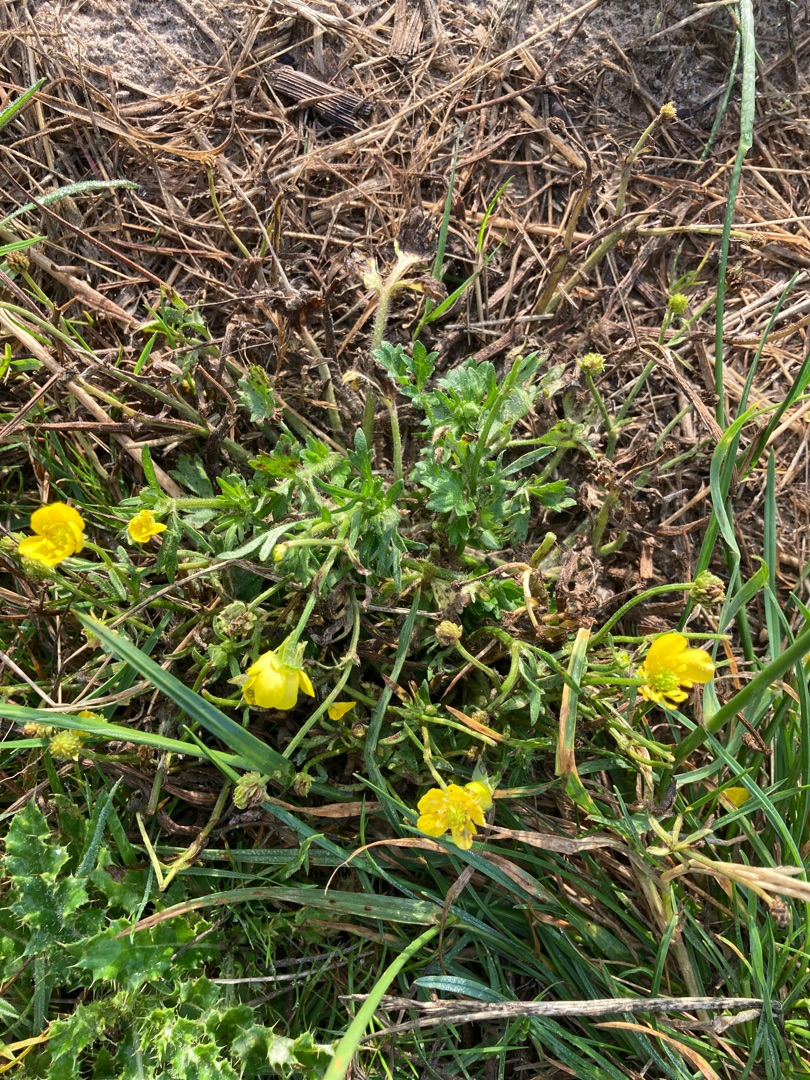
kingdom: Plantae
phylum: Tracheophyta
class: Magnoliopsida
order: Ranunculales
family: Ranunculaceae
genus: Ranunculus
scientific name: Ranunculus sardous
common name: Stivhåret ranunkel
